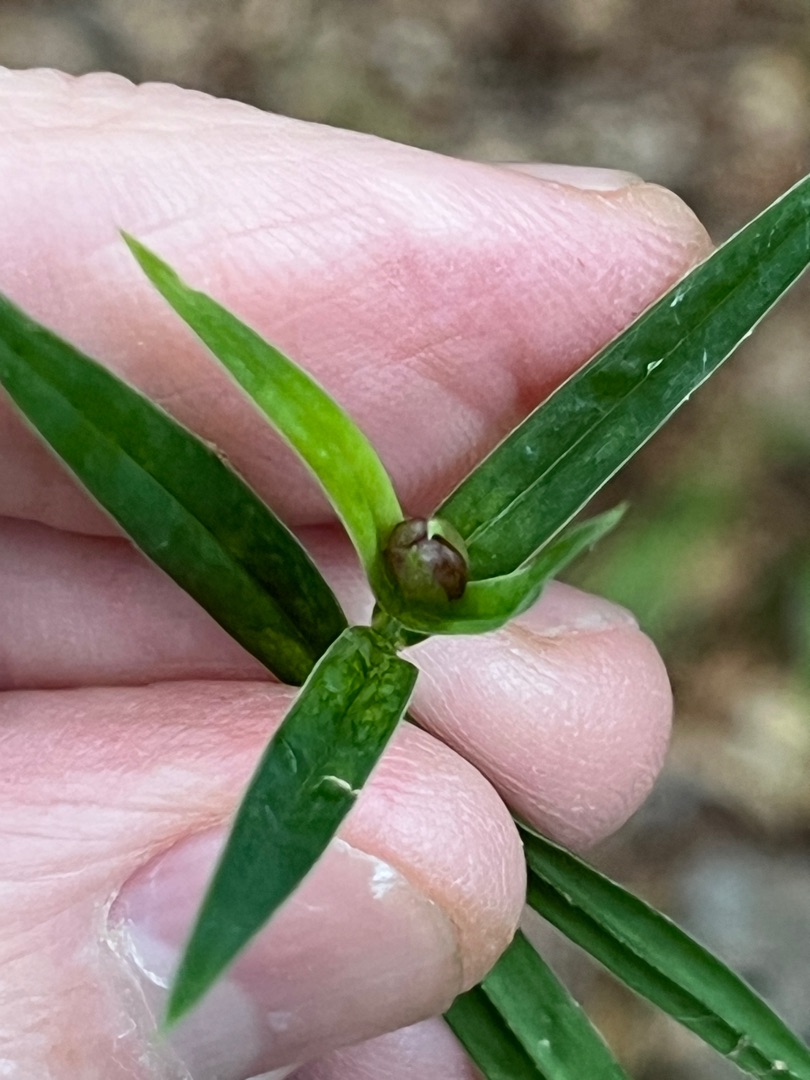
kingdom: Animalia
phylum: Arthropoda
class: Insecta
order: Diptera
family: Cecidomyiidae
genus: Dasineura
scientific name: Dasineura stellariae
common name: Fladstjernegalmyg
